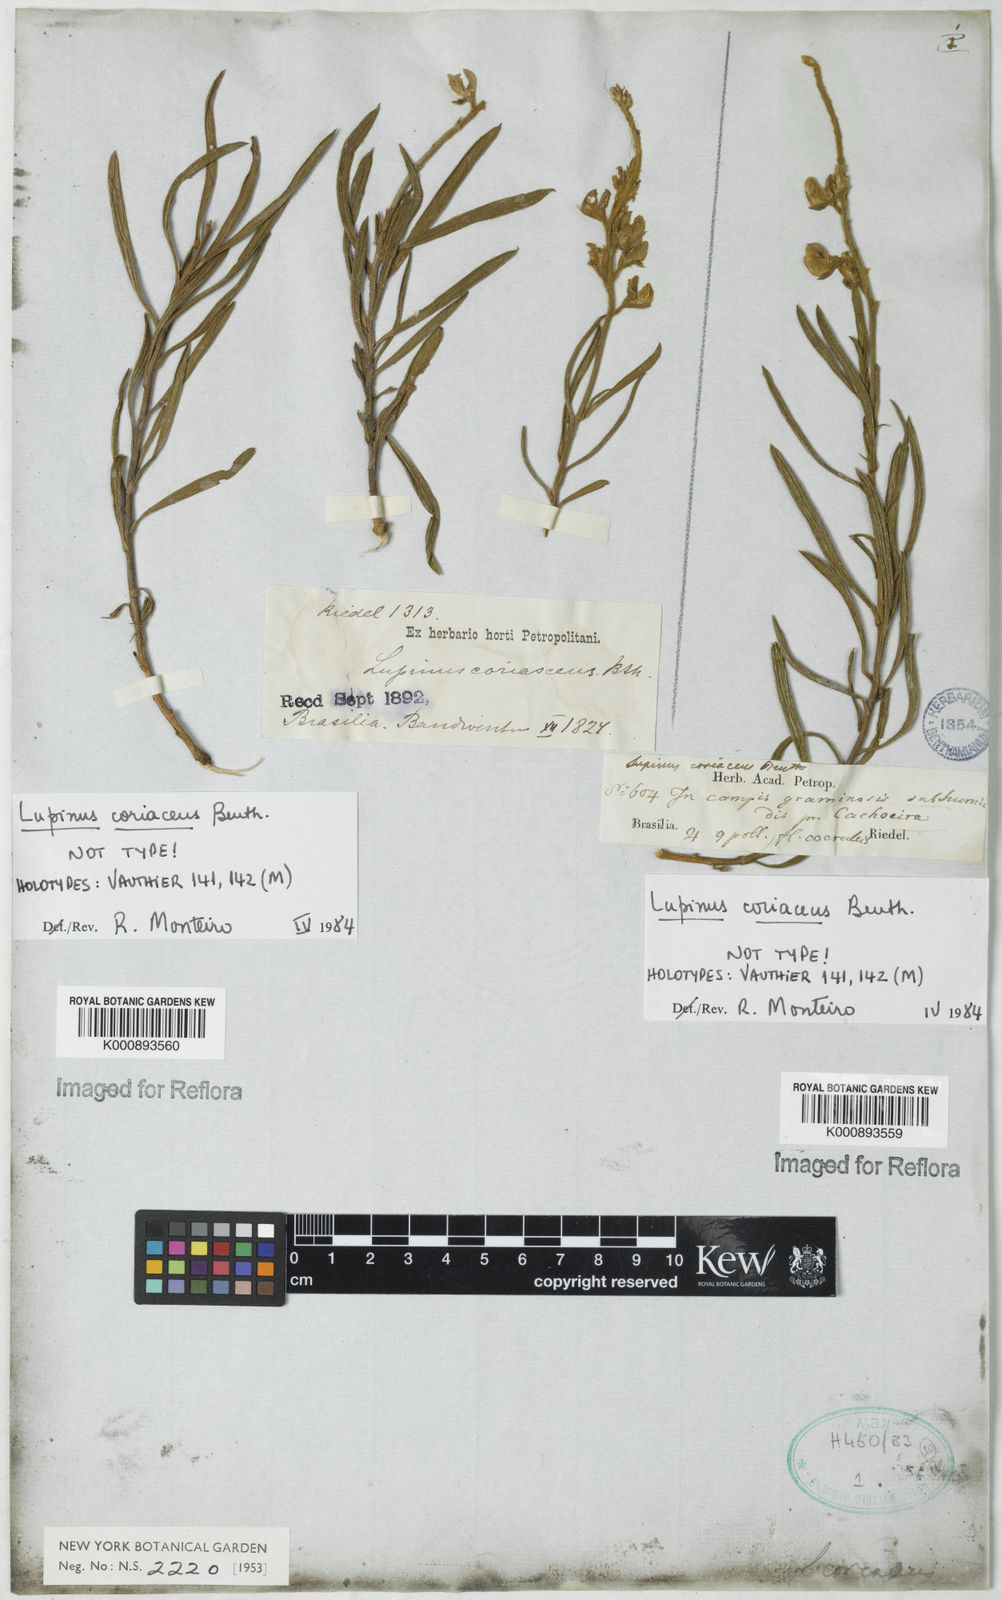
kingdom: Plantae
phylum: Tracheophyta
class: Magnoliopsida
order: Fabales
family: Fabaceae
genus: Lupinus
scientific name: Lupinus coriaceus
